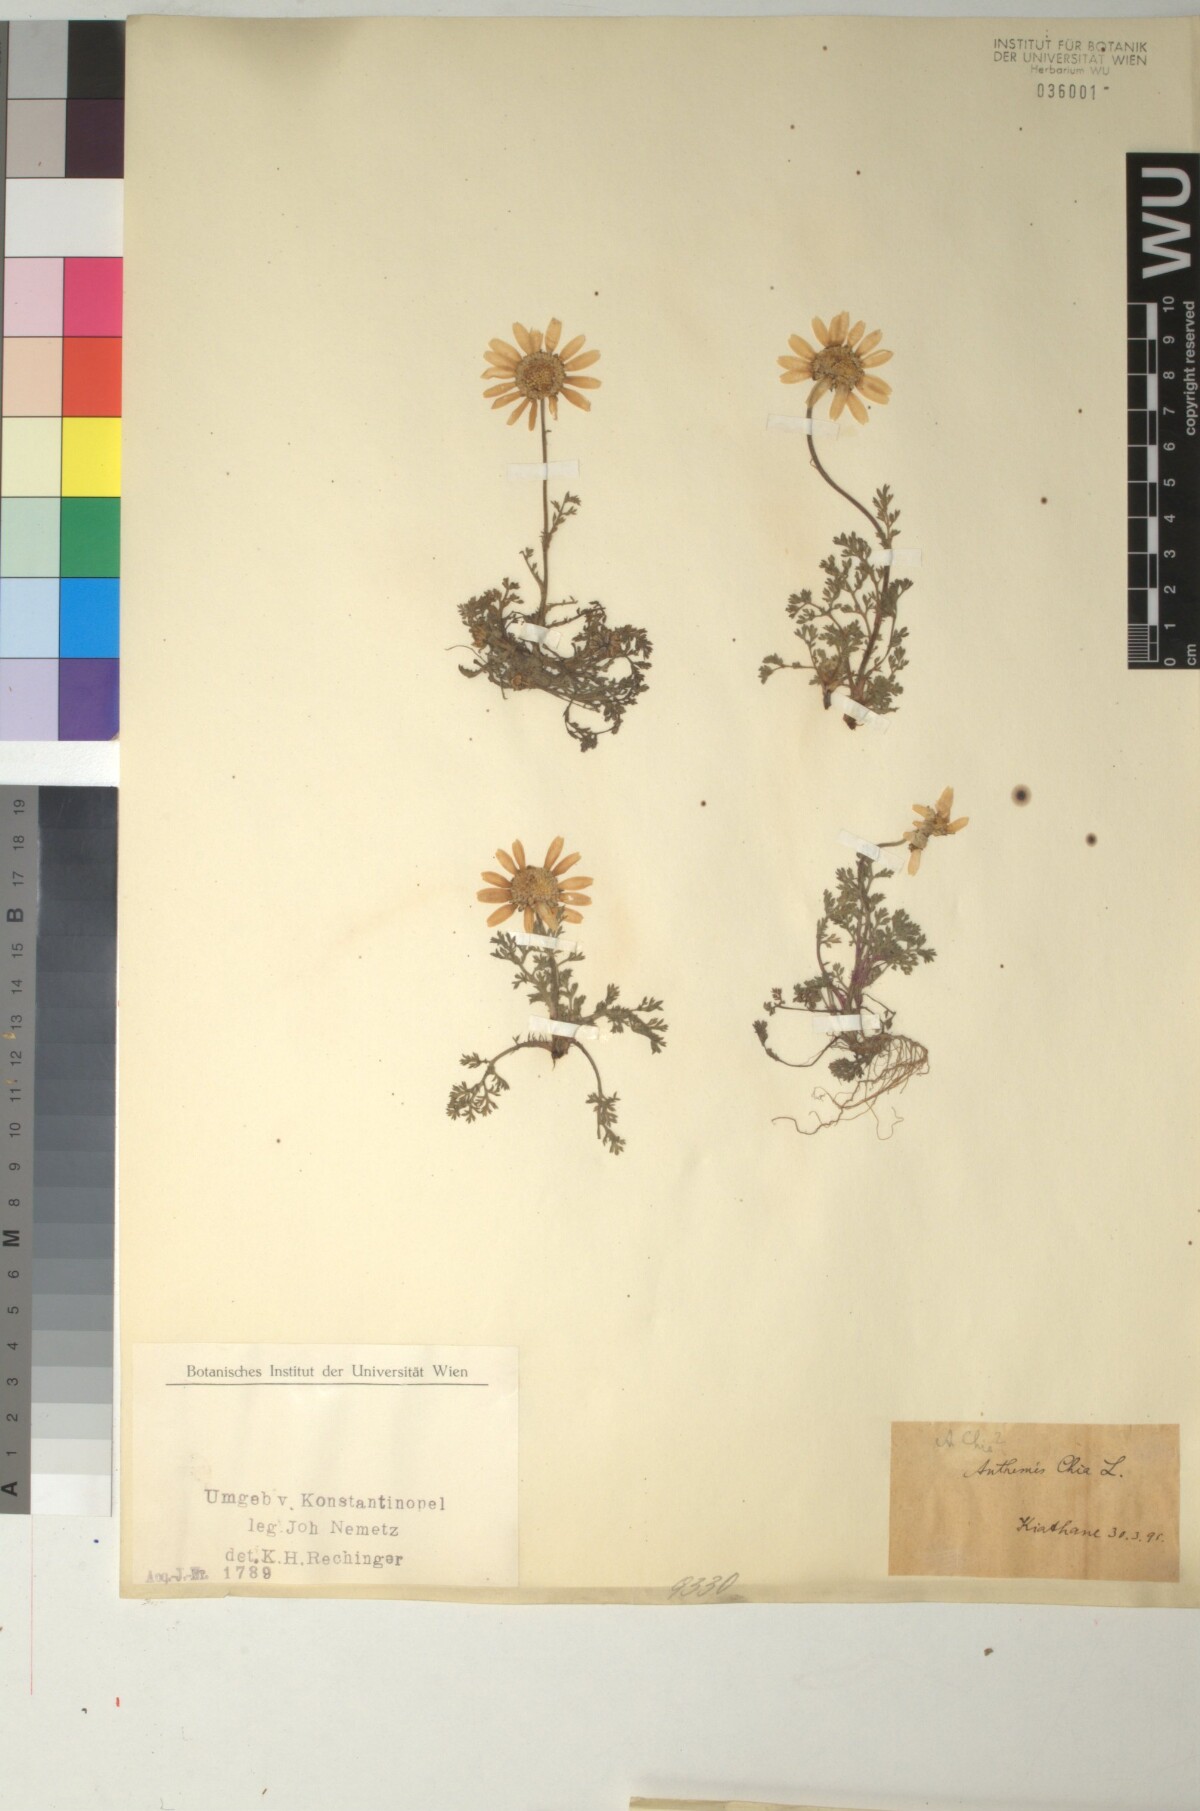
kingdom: Plantae
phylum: Tracheophyta
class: Magnoliopsida
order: Asterales
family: Asteraceae
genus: Anthemis
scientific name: Anthemis chia
